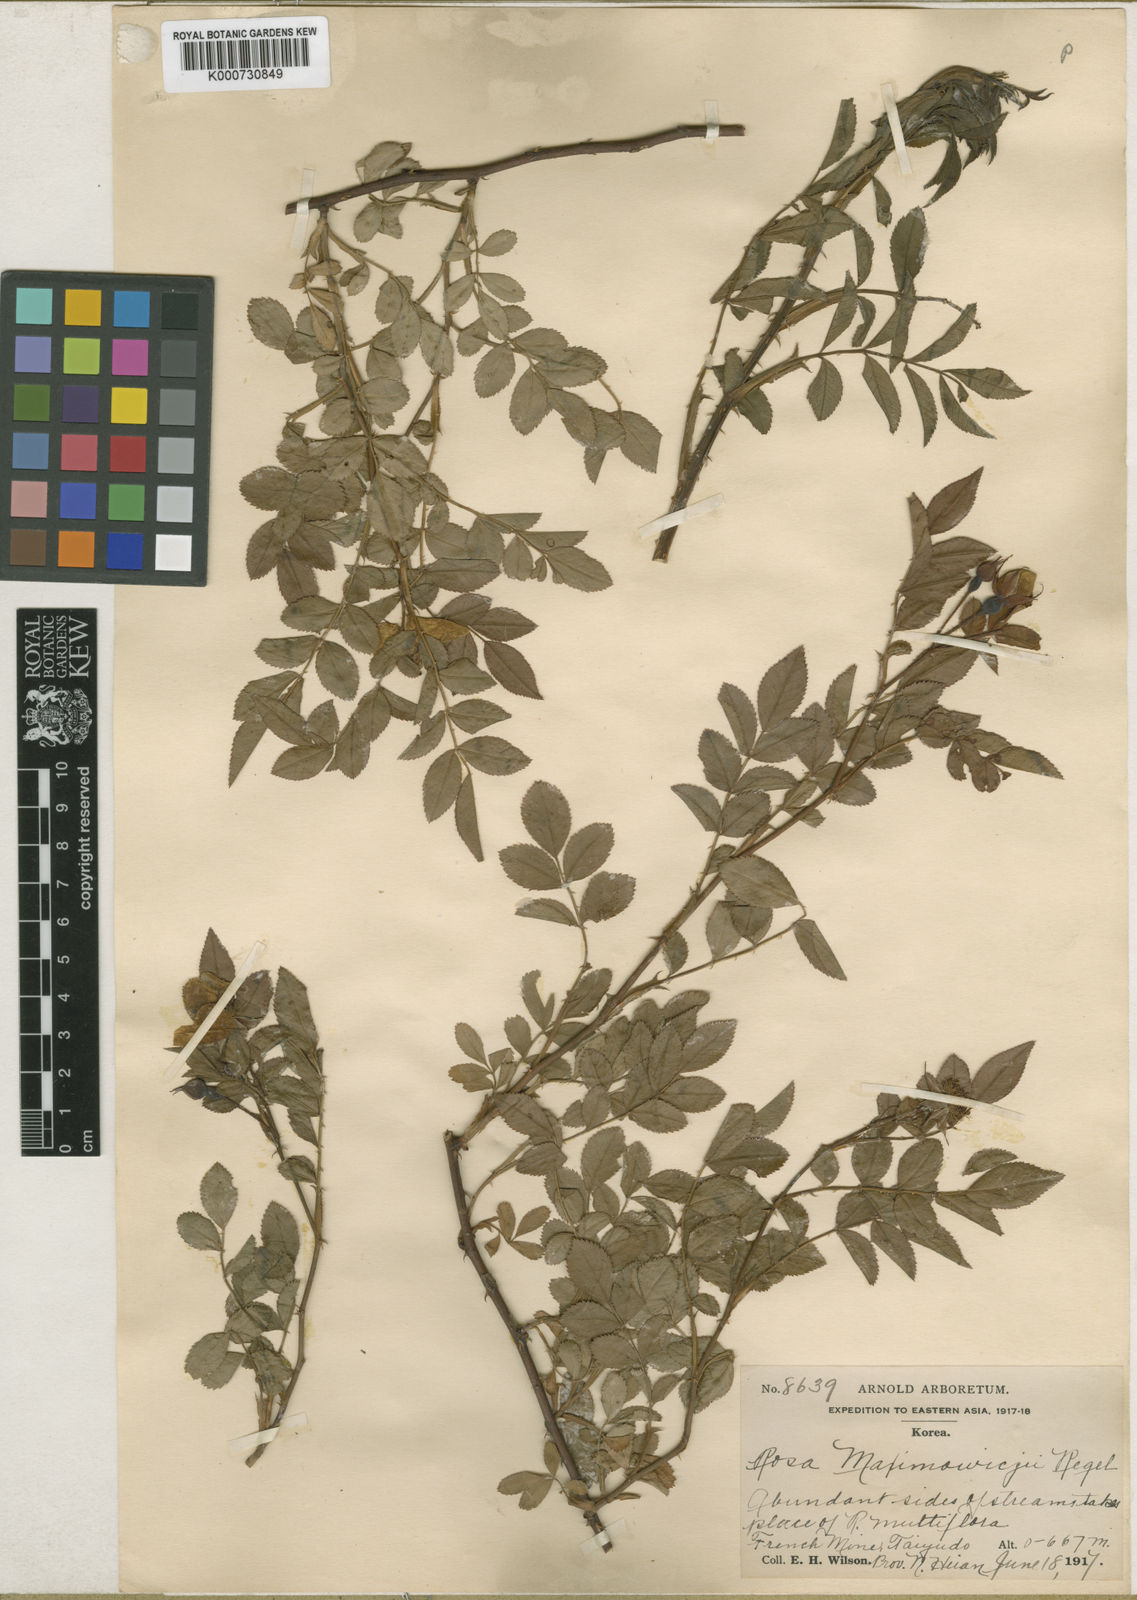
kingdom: Plantae
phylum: Tracheophyta
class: Magnoliopsida
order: Rosales
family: Rosaceae
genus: Rosa
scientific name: Rosa maximowicziana
